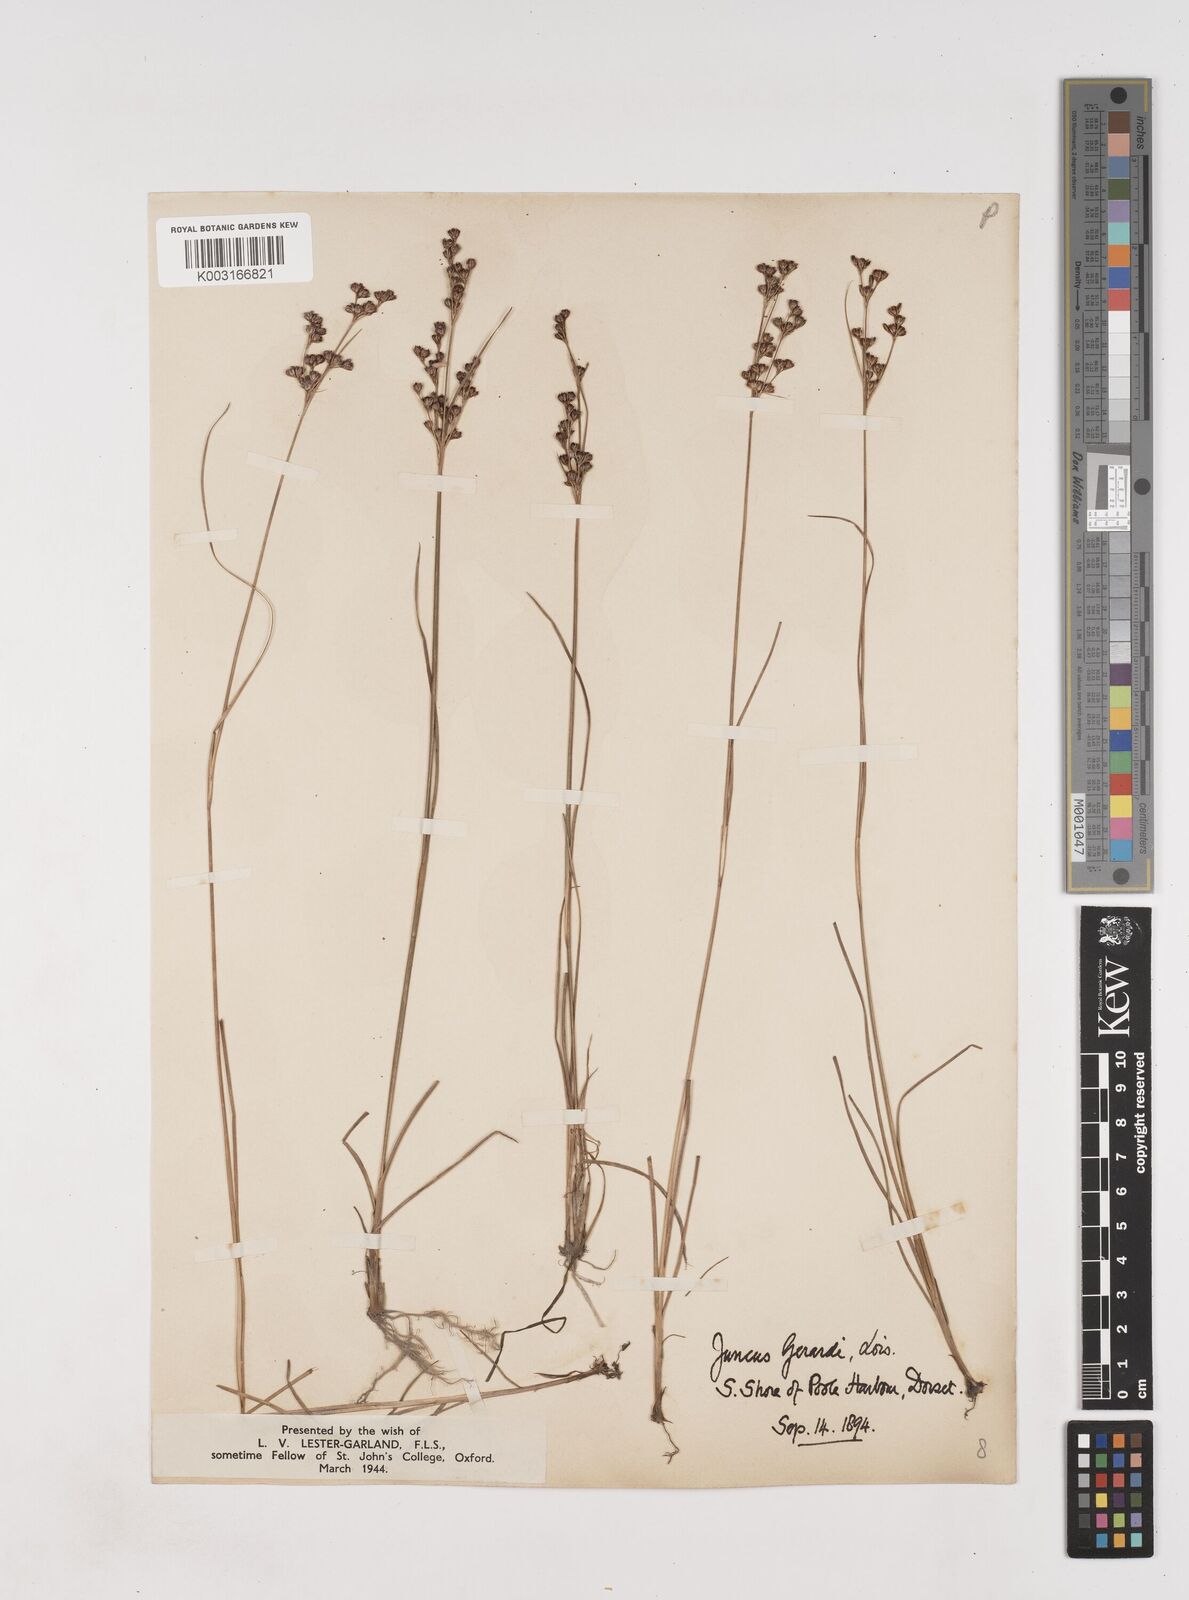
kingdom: Plantae
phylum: Tracheophyta
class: Liliopsida
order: Poales
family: Juncaceae
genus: Juncus
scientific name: Juncus gerardi
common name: Saltmarsh rush
